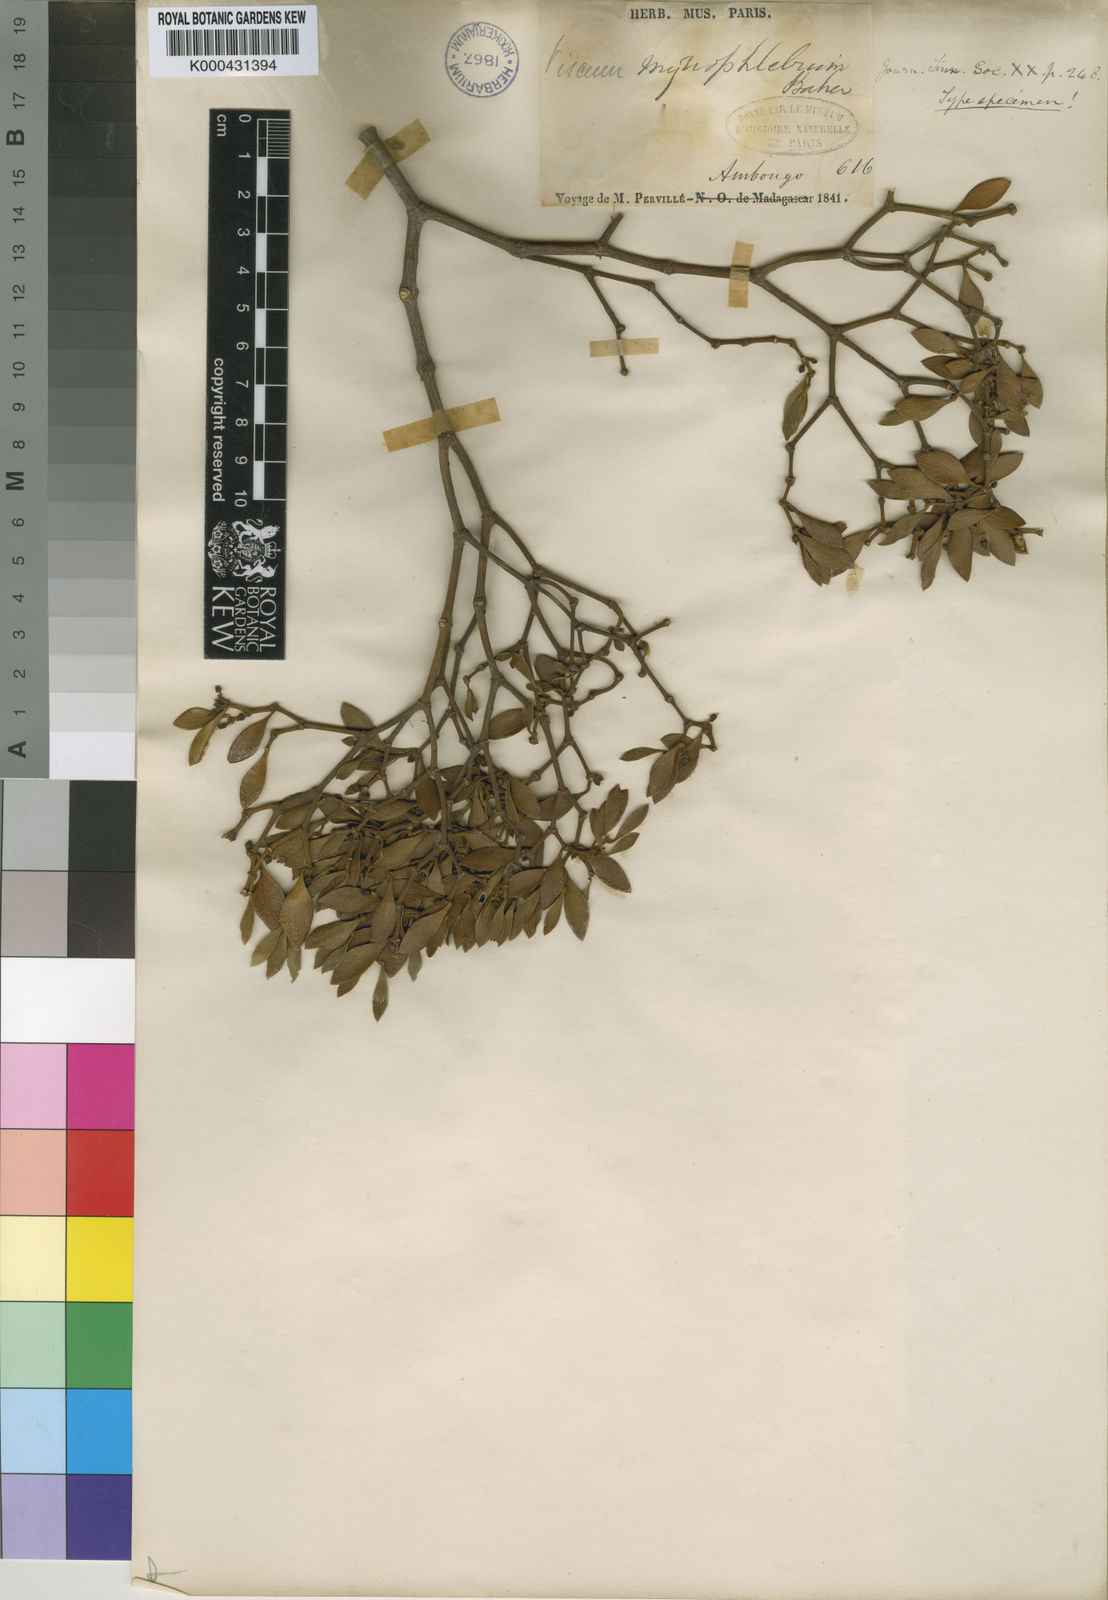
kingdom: Plantae
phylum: Tracheophyta
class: Magnoliopsida
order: Santalales
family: Viscaceae
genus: Viscum
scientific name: Viscum myriophlebium
